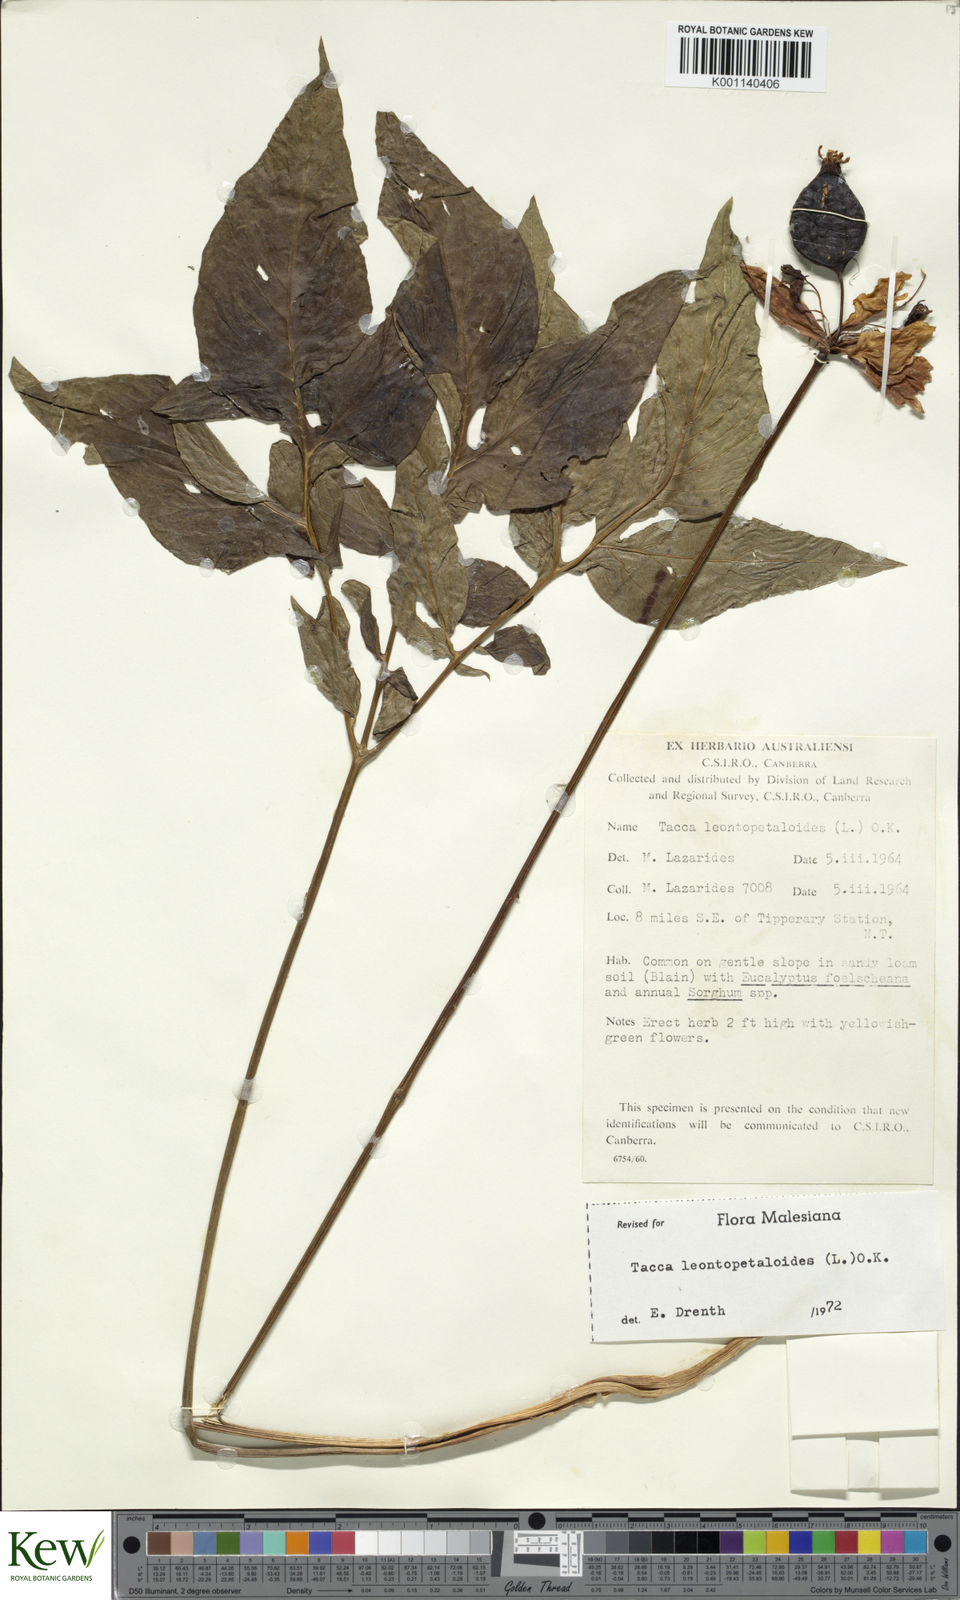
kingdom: Plantae
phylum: Tracheophyta
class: Liliopsida
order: Dioscoreales
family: Dioscoreaceae
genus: Tacca
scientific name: Tacca leontopetaloides
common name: Arrowroot
